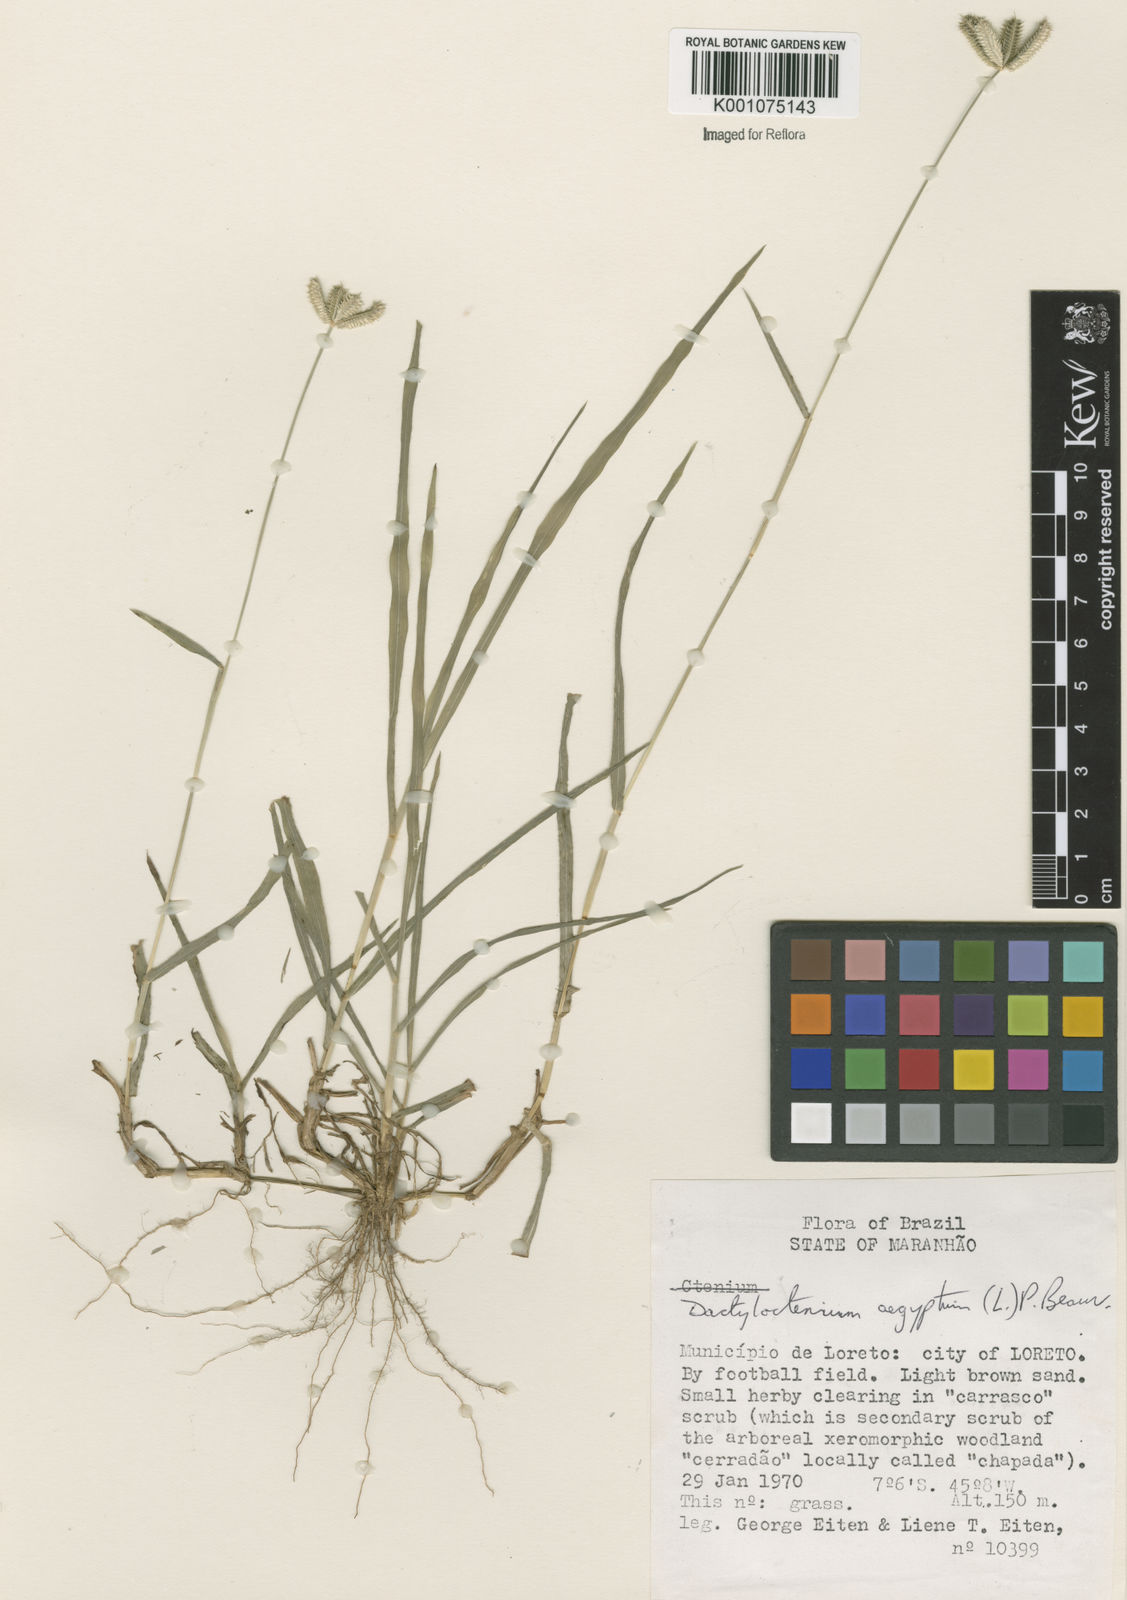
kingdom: Plantae
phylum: Tracheophyta
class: Liliopsida
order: Poales
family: Poaceae
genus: Dactyloctenium
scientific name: Dactyloctenium aegyptium
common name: Egyptian grass
